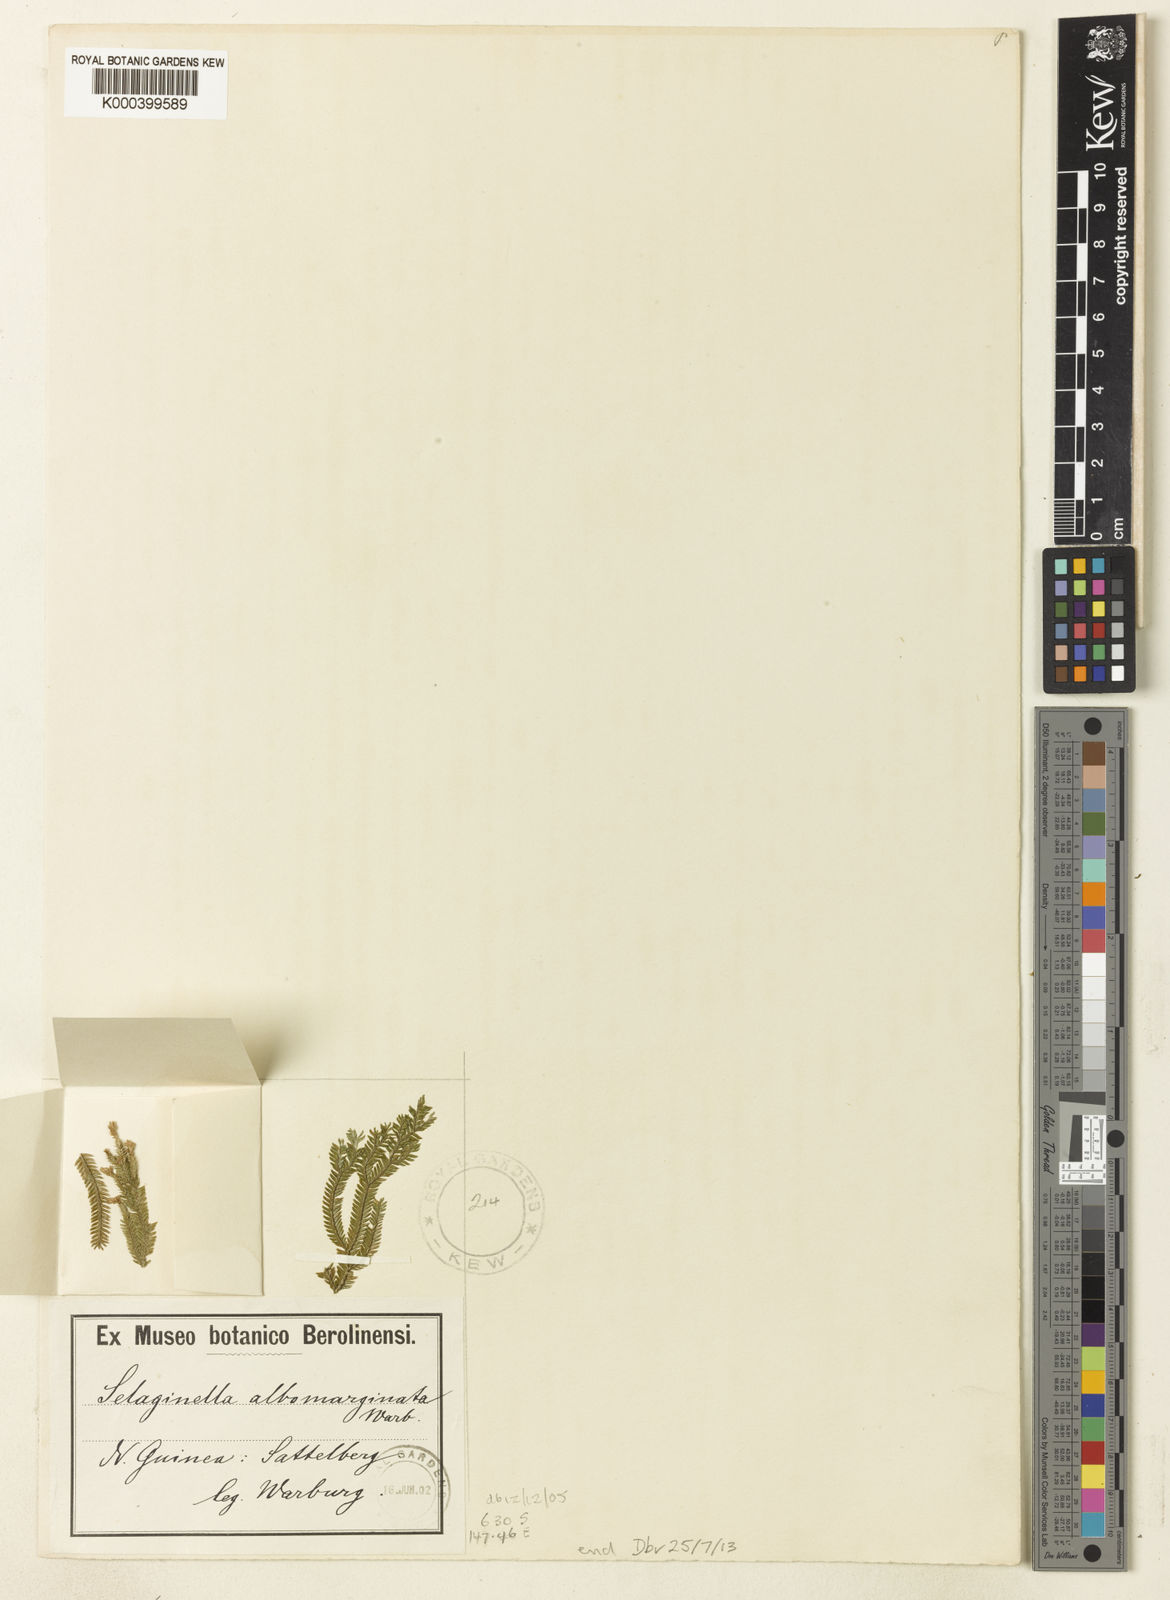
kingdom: Plantae
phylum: Tracheophyta
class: Lycopodiopsida
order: Selaginellales
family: Selaginellaceae
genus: Selaginella
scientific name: Selaginella
